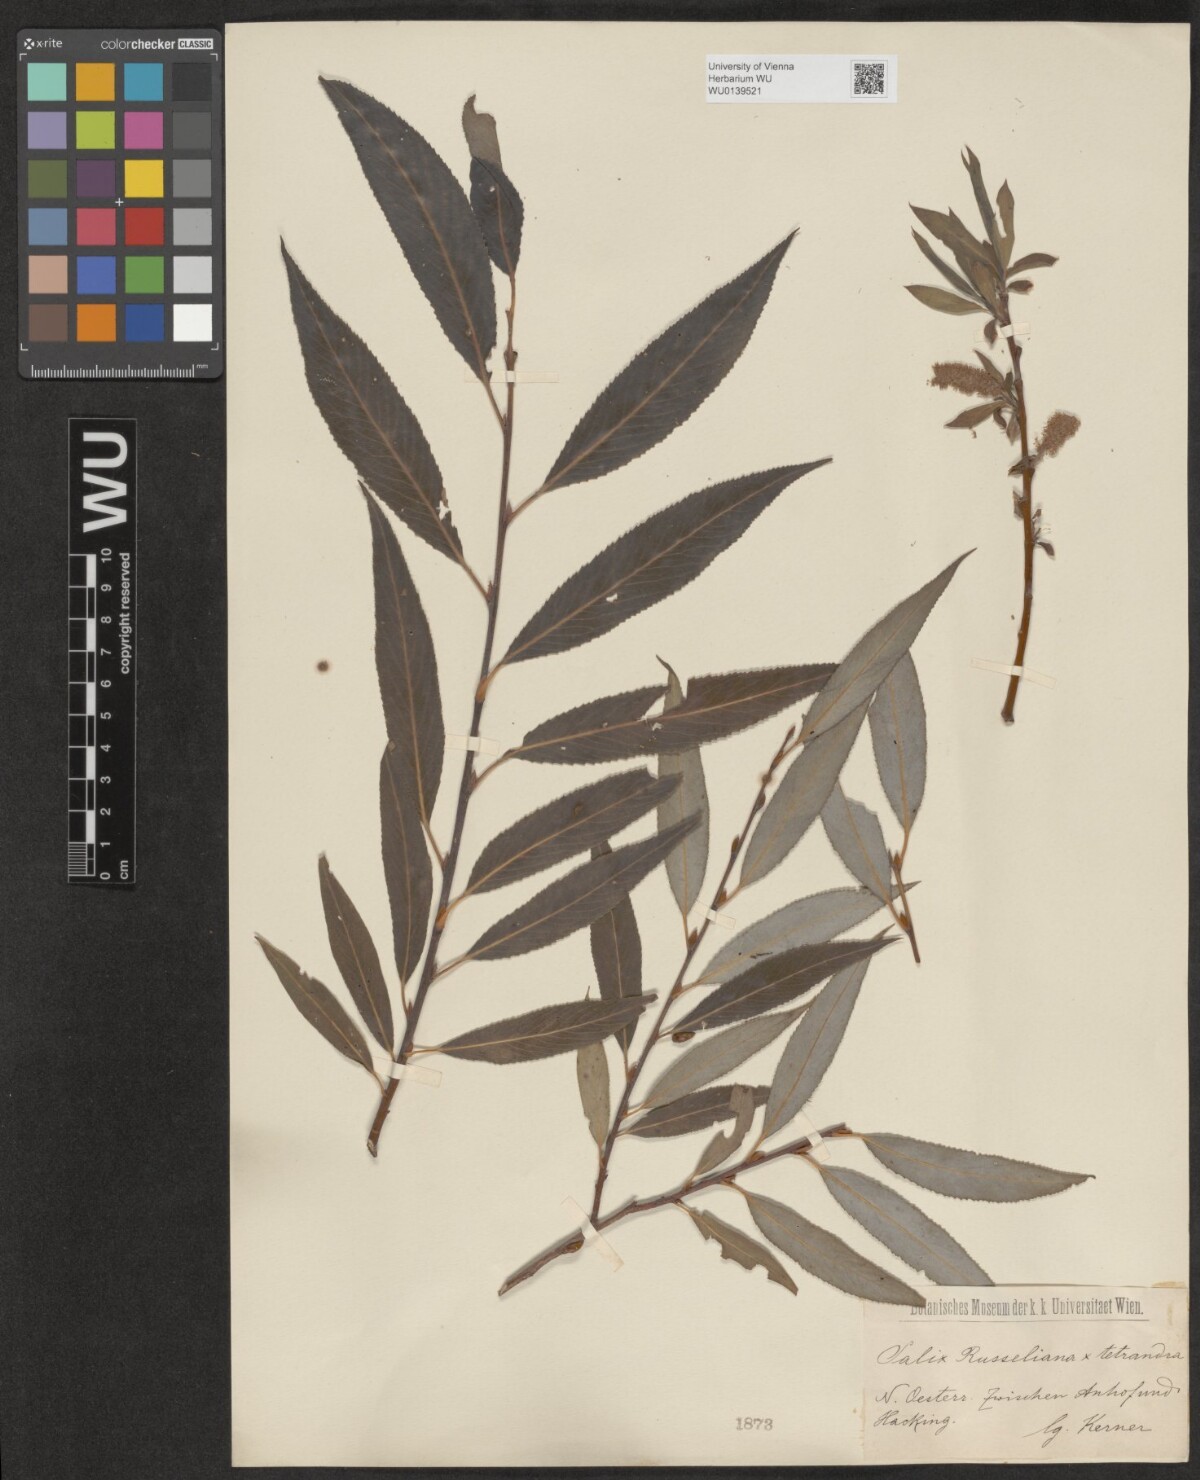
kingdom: Plantae
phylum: Tracheophyta
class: Magnoliopsida
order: Malpighiales
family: Salicaceae
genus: Salix
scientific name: Salix rubens
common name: Hybrid crack willow
